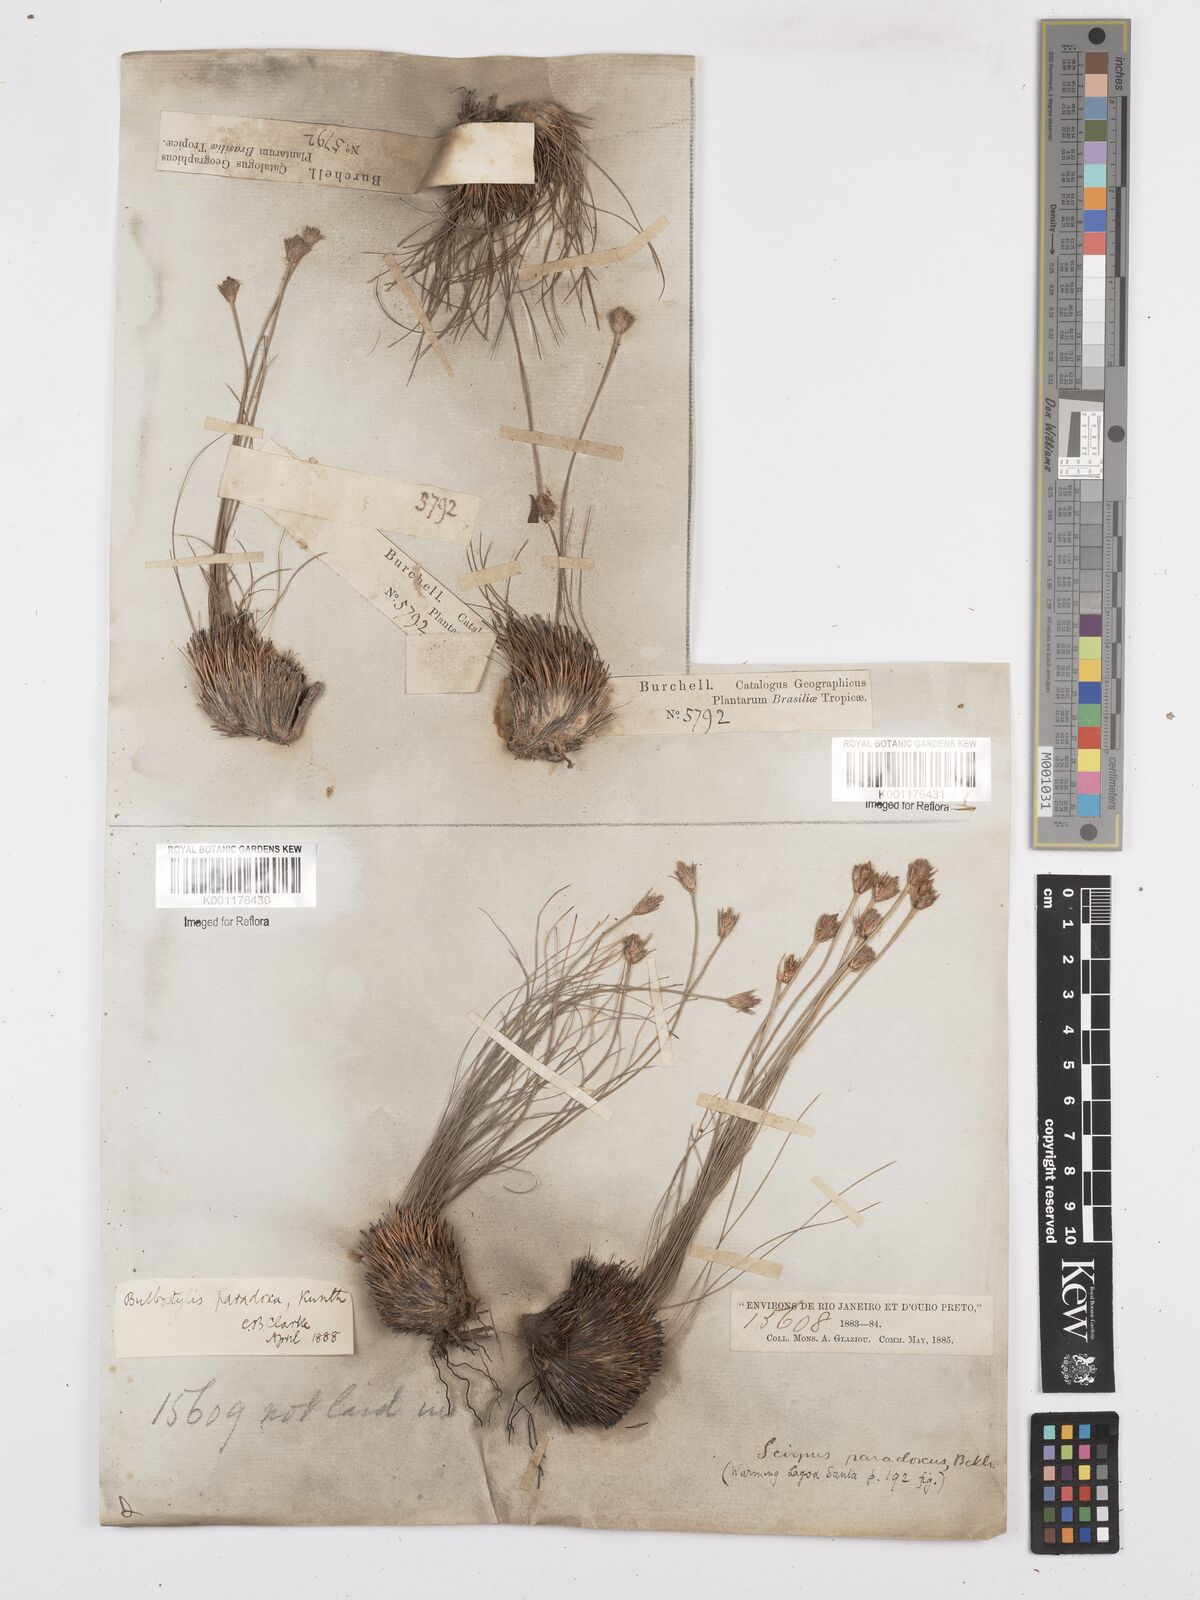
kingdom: Plantae
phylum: Tracheophyta
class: Liliopsida
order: Poales
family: Cyperaceae
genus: Bulbostylis
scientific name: Bulbostylis paradoxa
